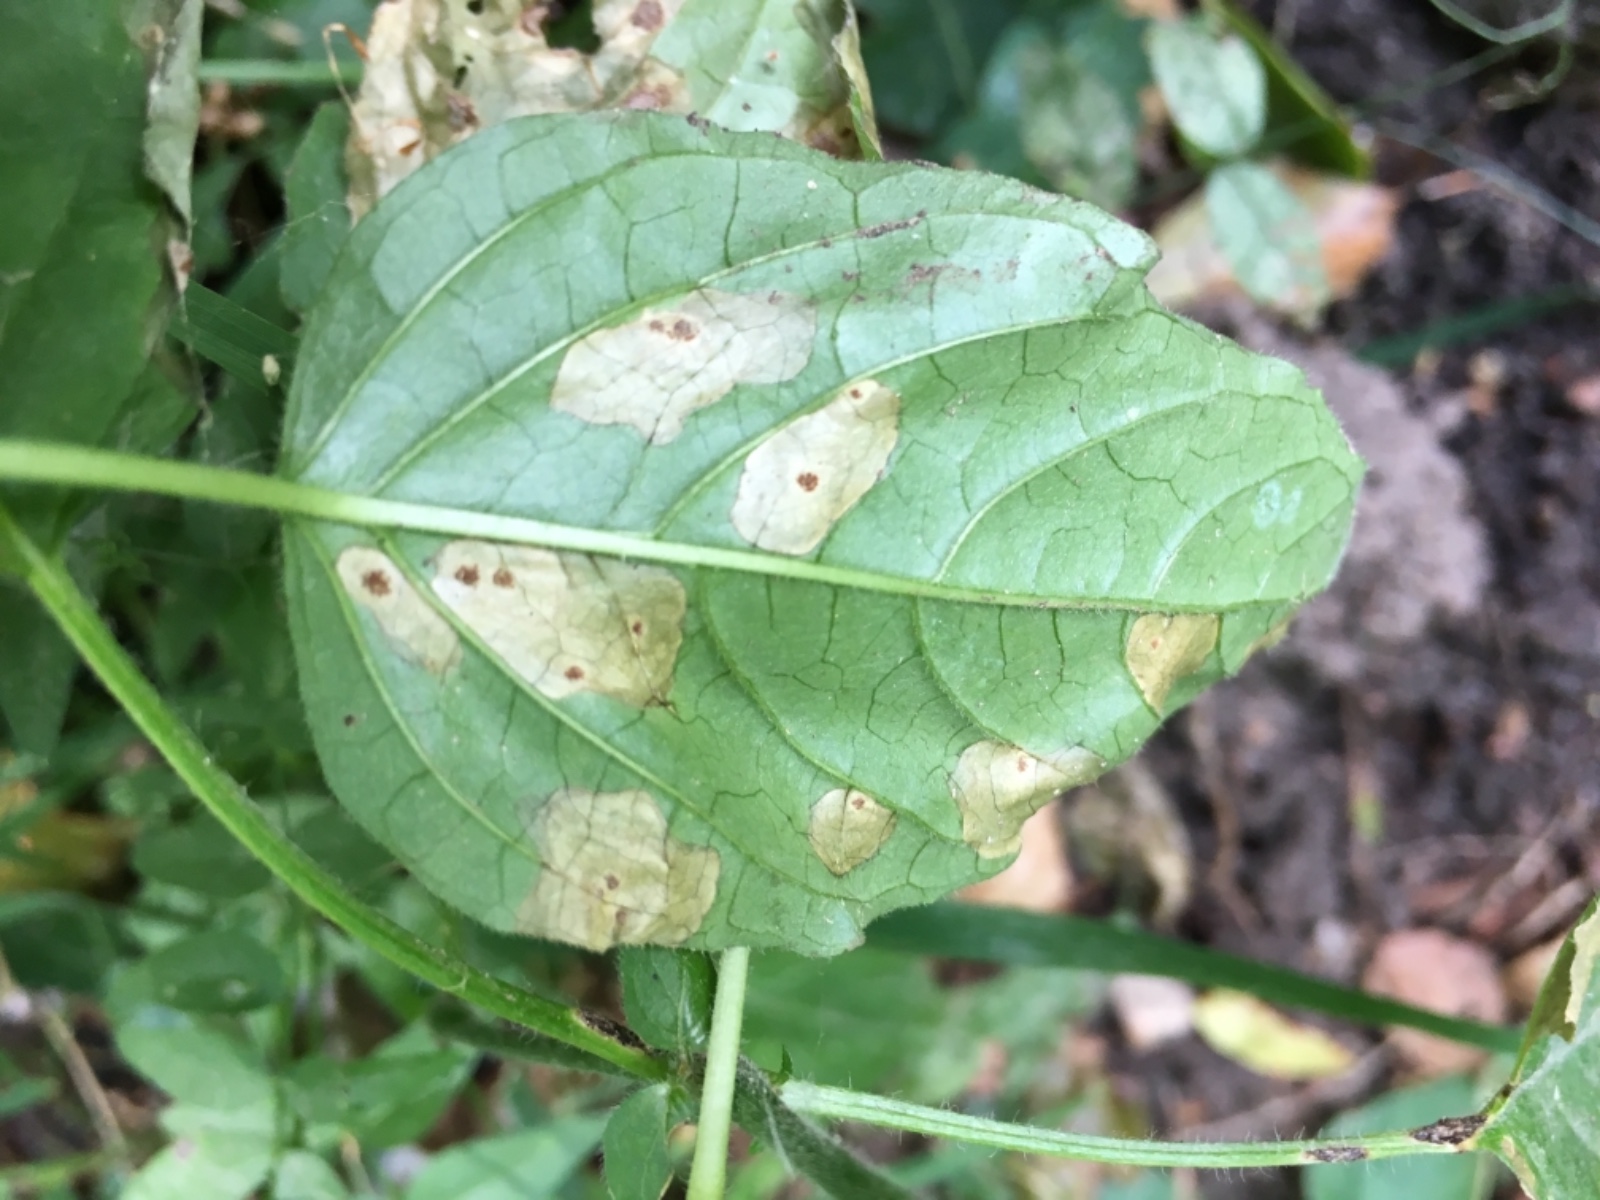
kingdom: Fungi
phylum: Basidiomycota
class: Pucciniomycetes
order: Pucciniales
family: Pucciniaceae
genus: Puccinia
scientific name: Puccinia circaeae
